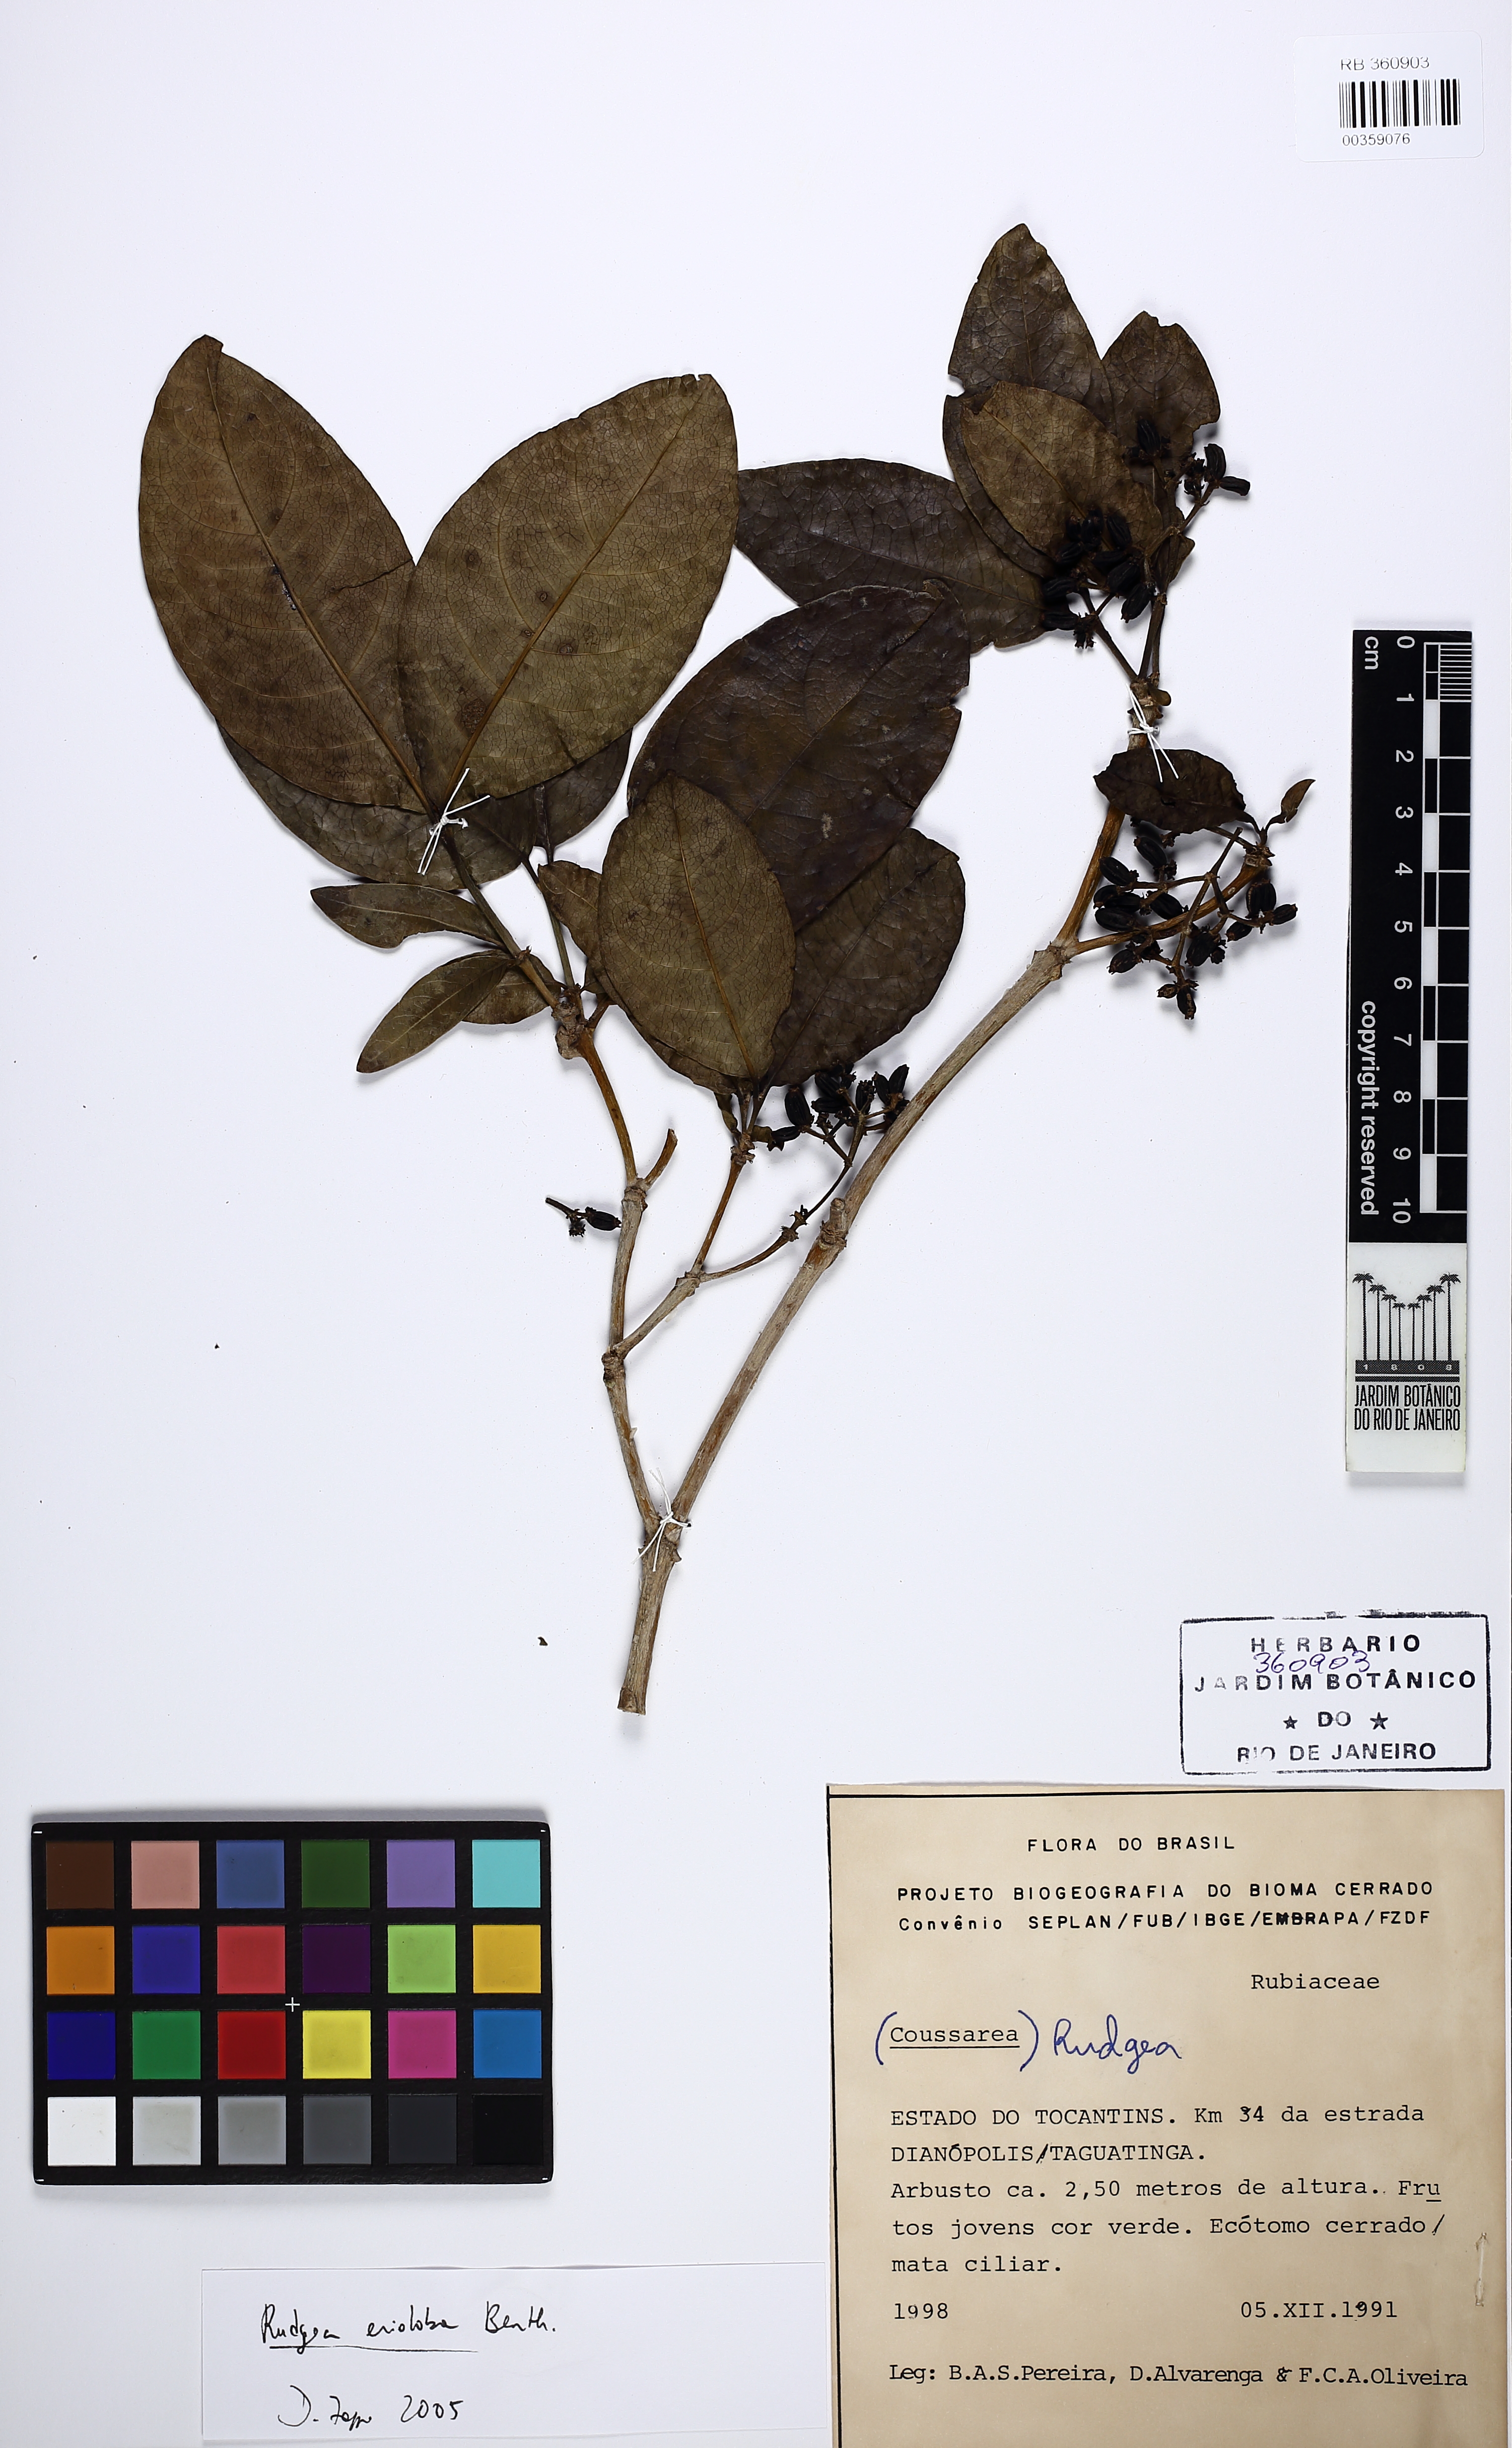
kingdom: Plantae
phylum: Tracheophyta
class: Magnoliopsida
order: Gentianales
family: Rubiaceae
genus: Rudgea
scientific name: Rudgea crassiloba
